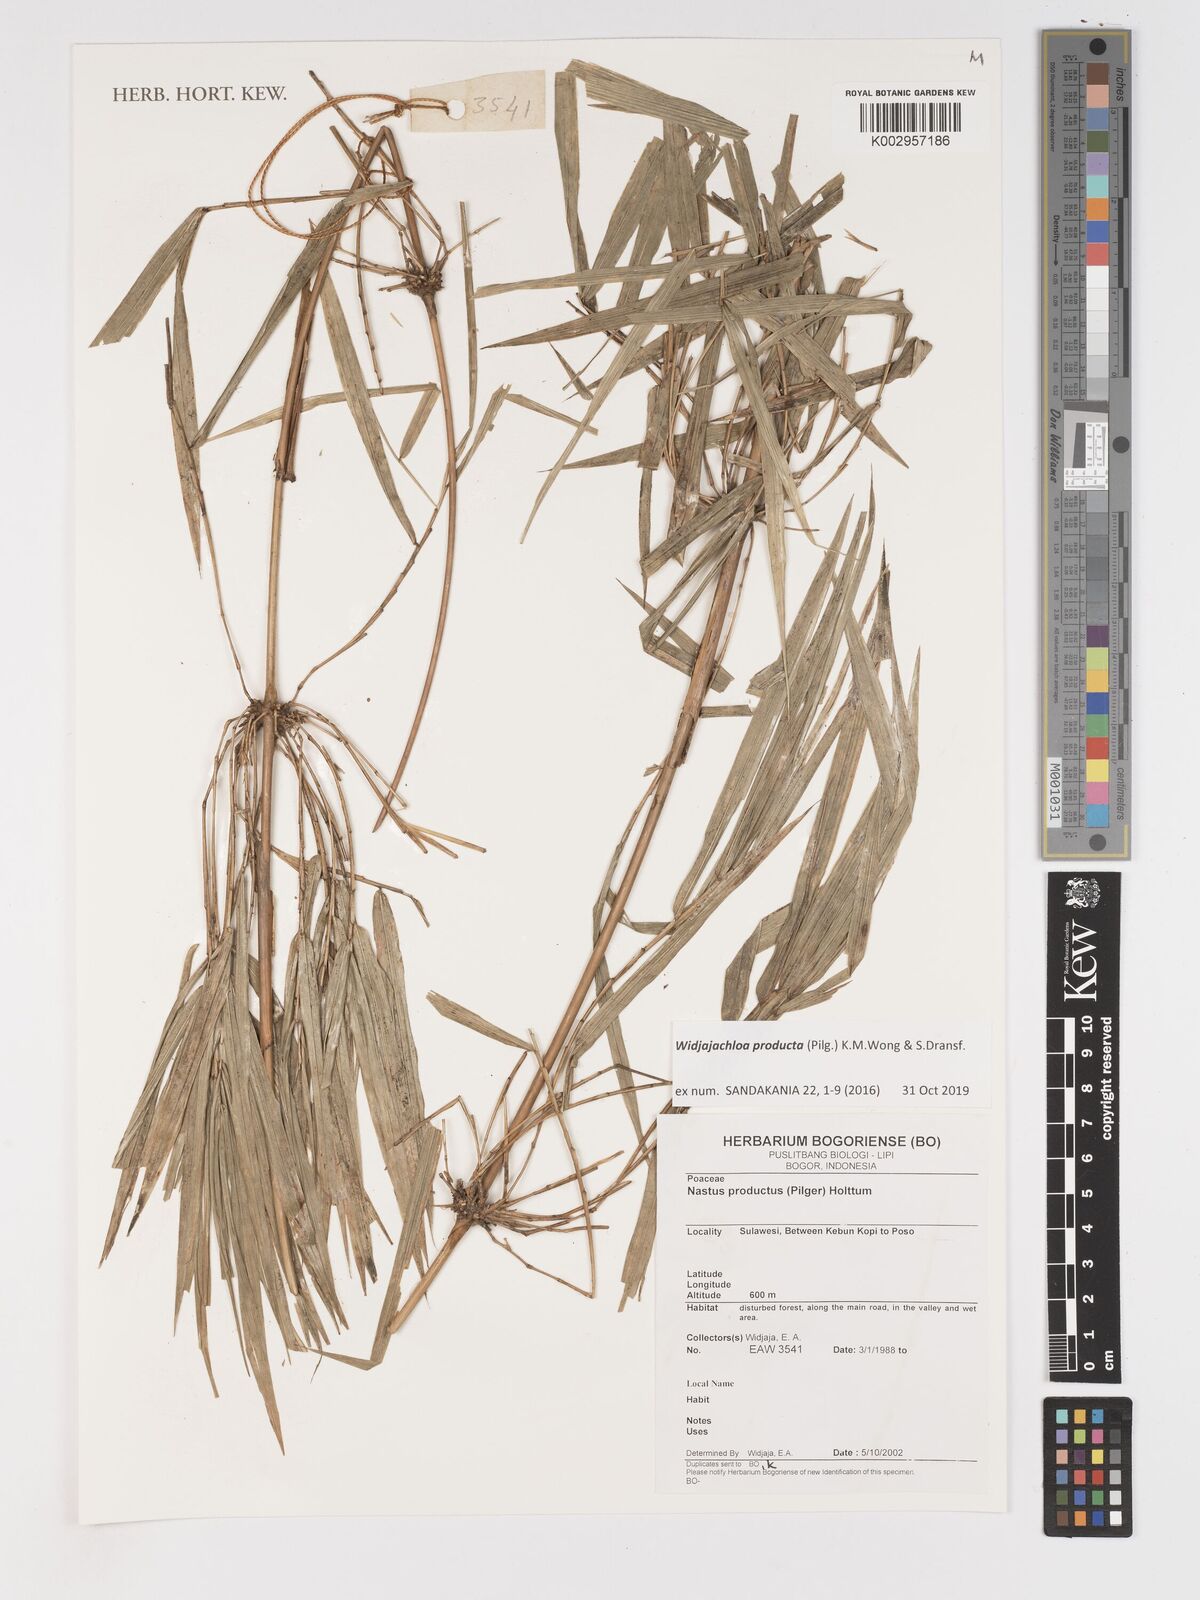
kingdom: Plantae
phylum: Tracheophyta
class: Liliopsida
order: Poales
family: Poaceae
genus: Widjajachloa
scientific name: Widjajachloa producta
